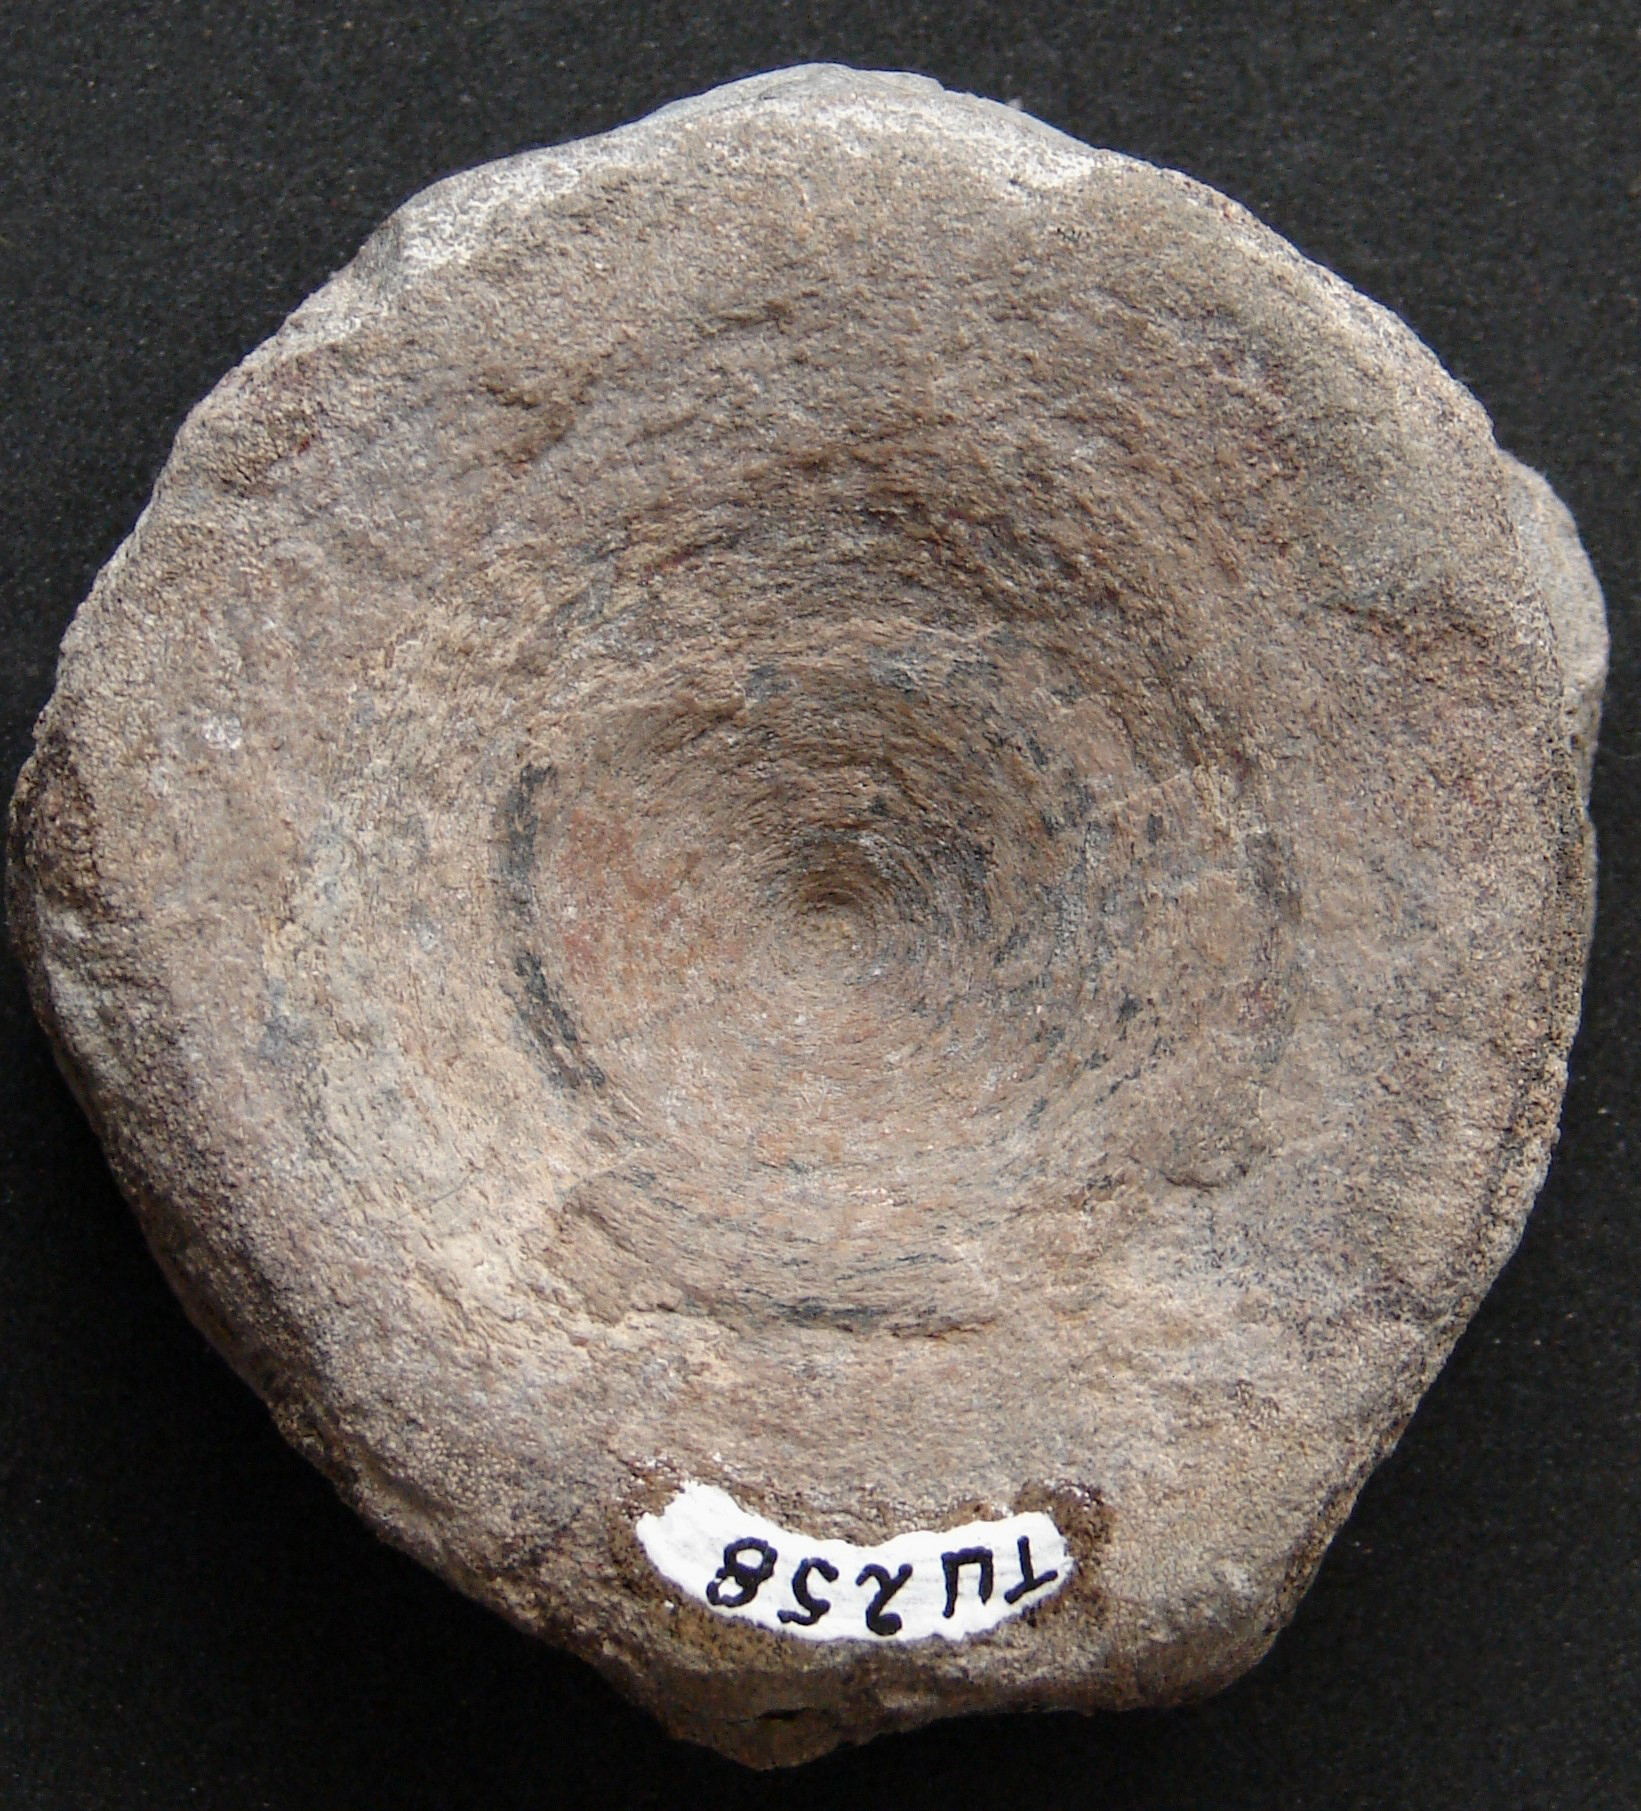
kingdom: Animalia
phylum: Chordata
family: Stenopterygiidae
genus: Stenopterygius
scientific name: Stenopterygius
